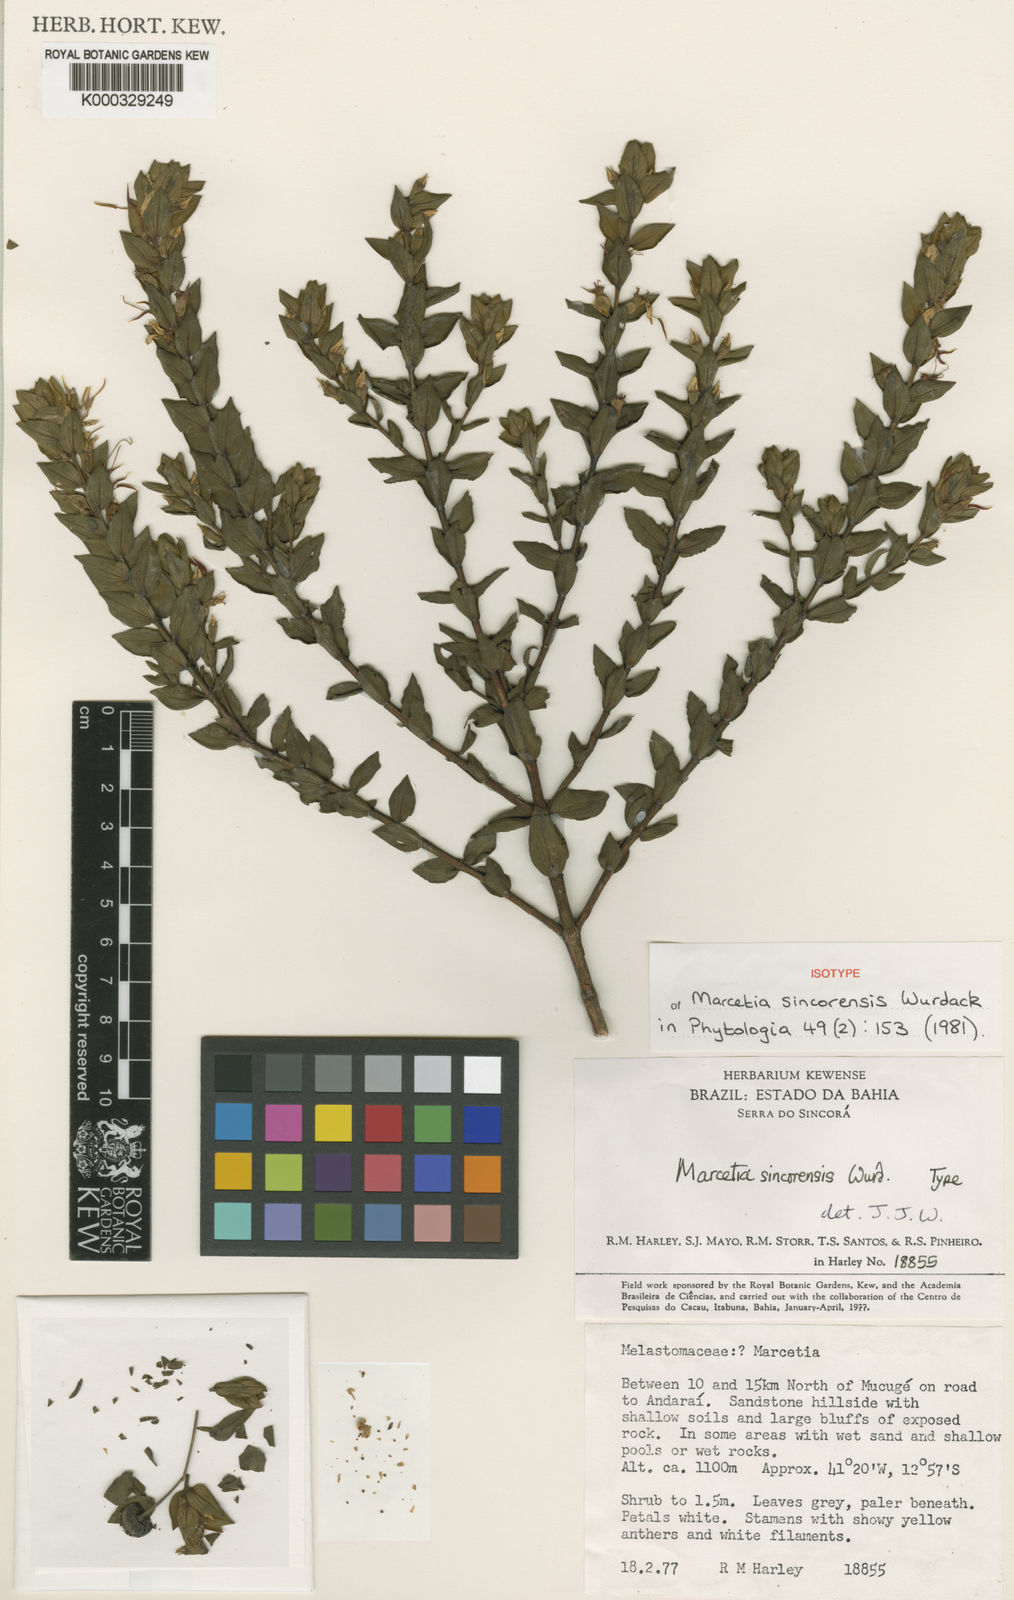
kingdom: Plantae
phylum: Tracheophyta
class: Magnoliopsida
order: Myrtales
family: Melastomataceae
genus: Marcetia
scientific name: Marcetia sincorensis
